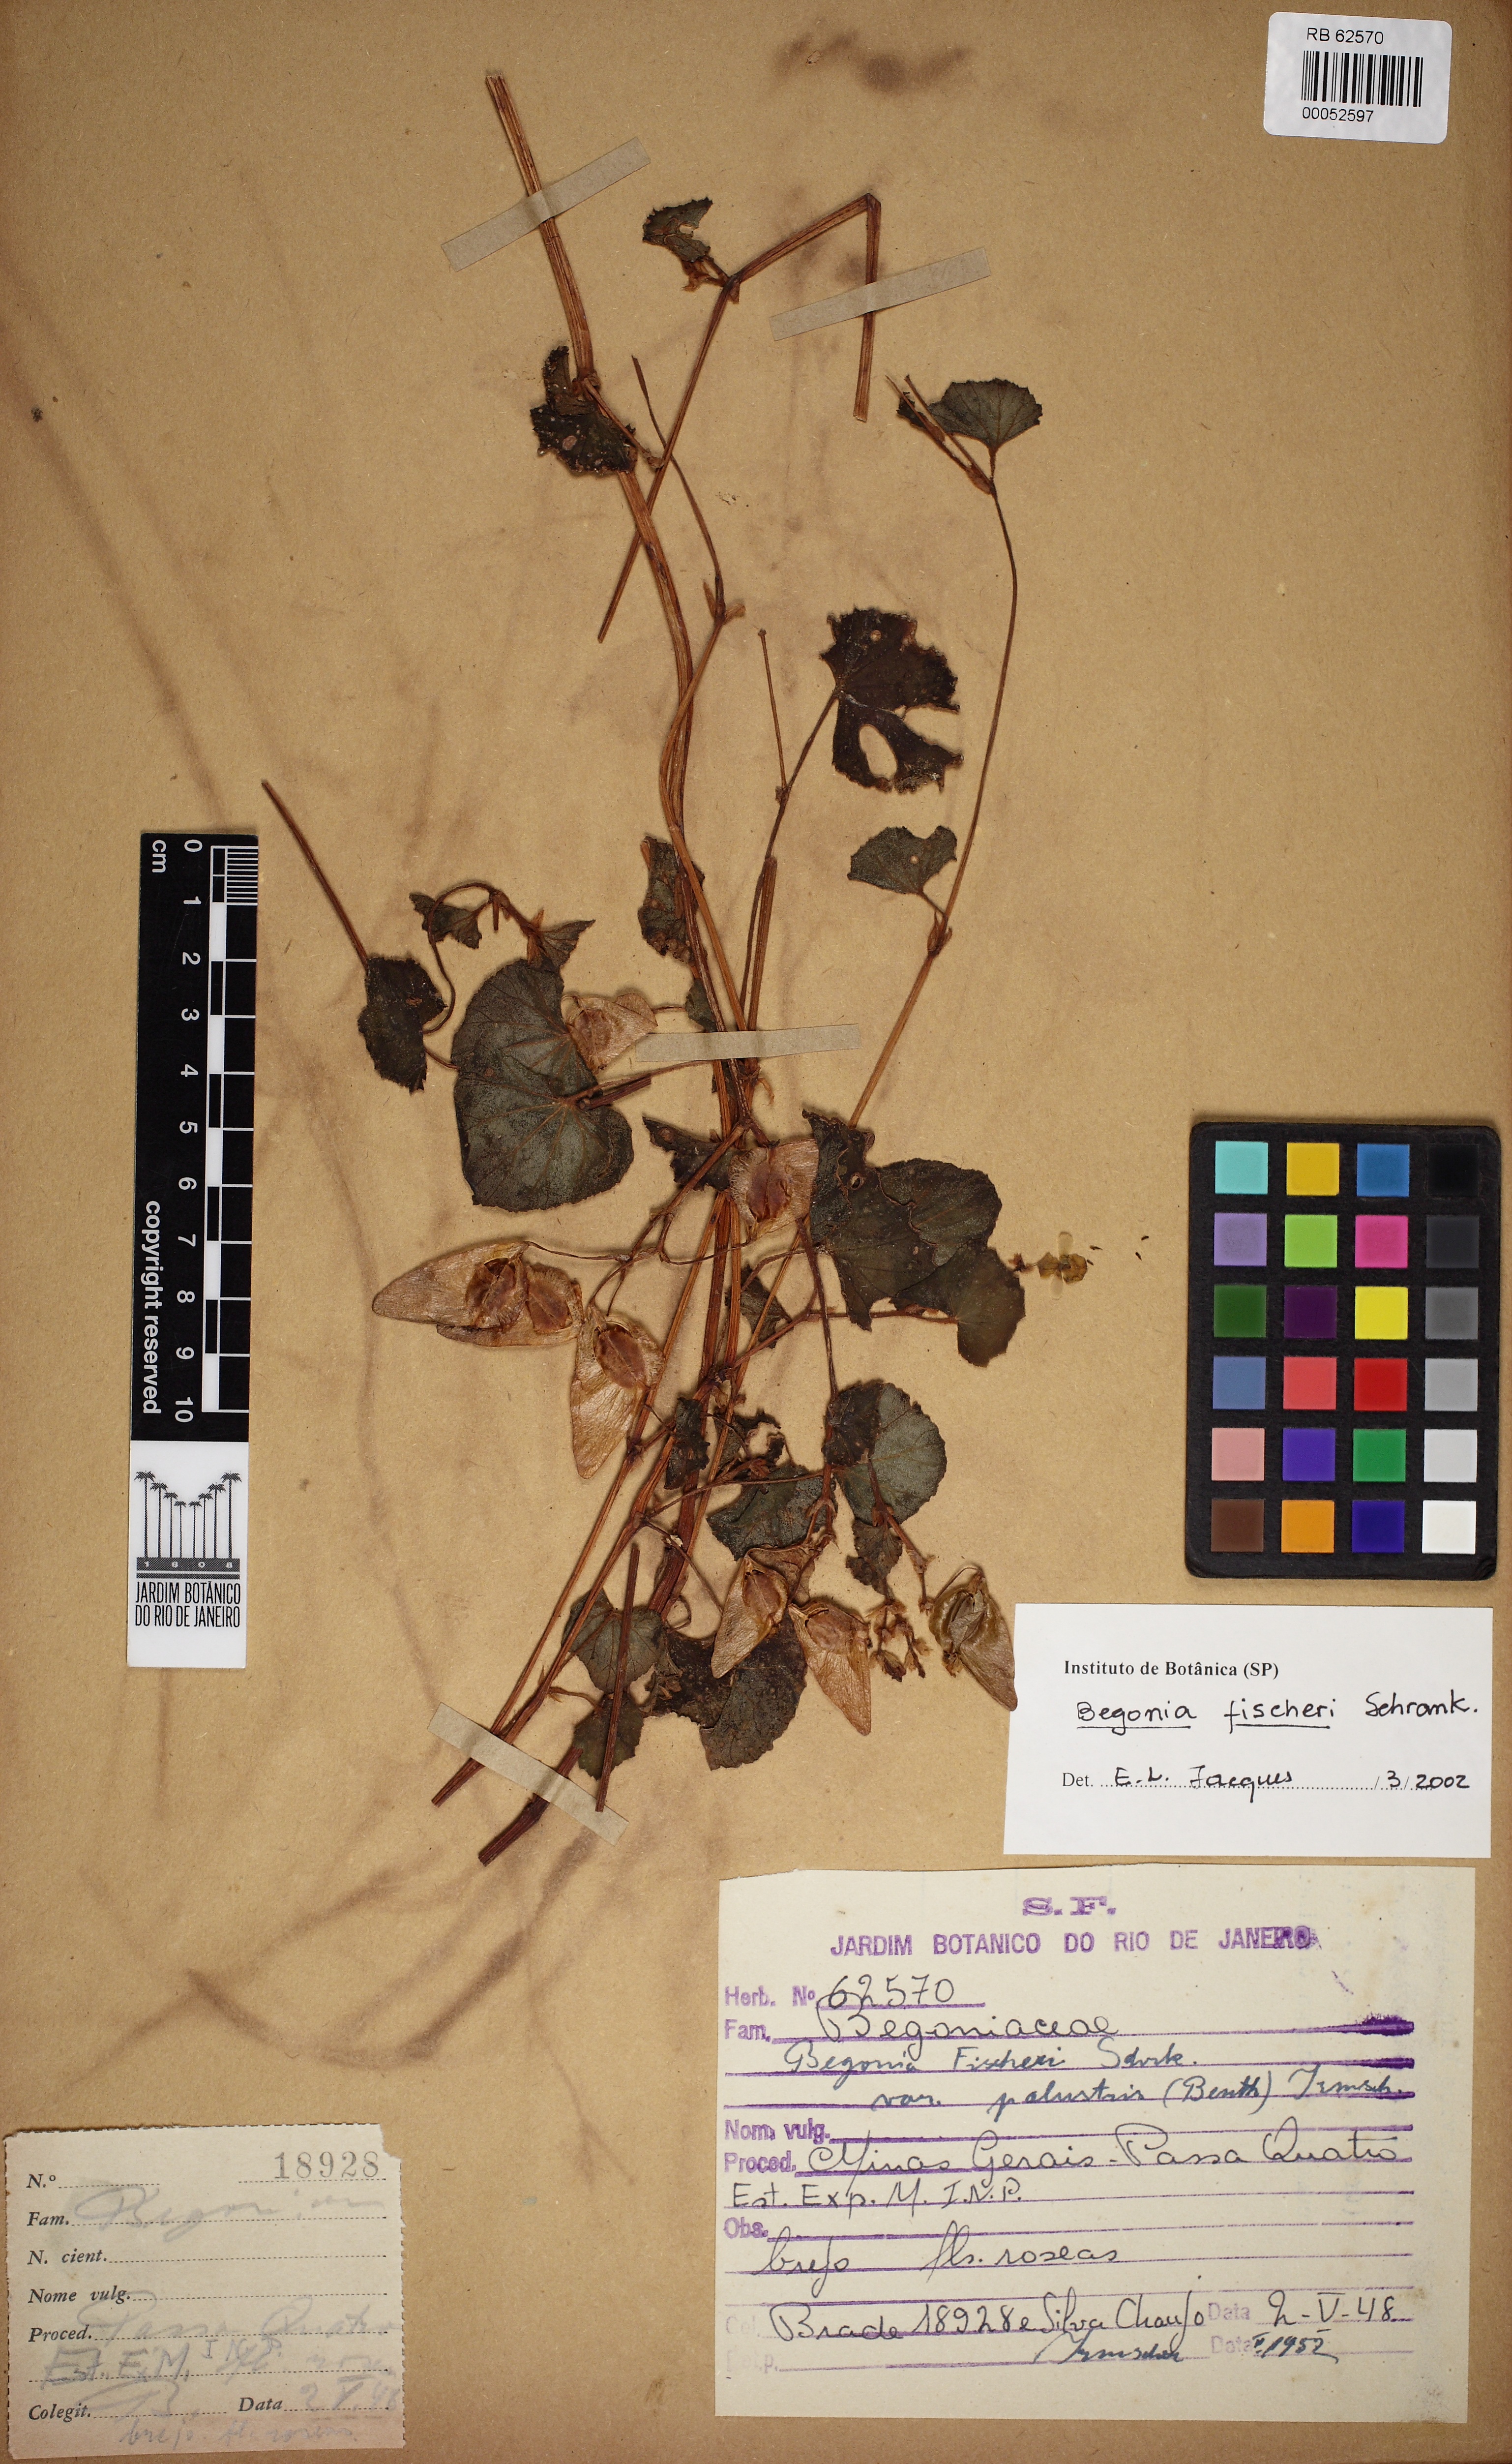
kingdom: Plantae
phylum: Tracheophyta
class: Magnoliopsida
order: Cucurbitales
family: Begoniaceae
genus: Begonia
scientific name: Begonia fischeri
